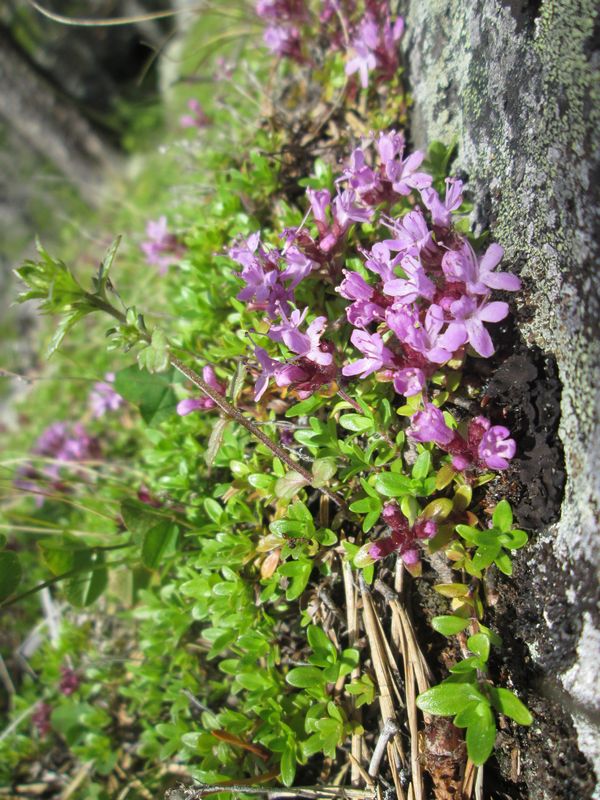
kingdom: Plantae
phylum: Tracheophyta
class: Magnoliopsida
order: Lamiales
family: Lamiaceae
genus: Thymus
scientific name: Thymus serpyllum
